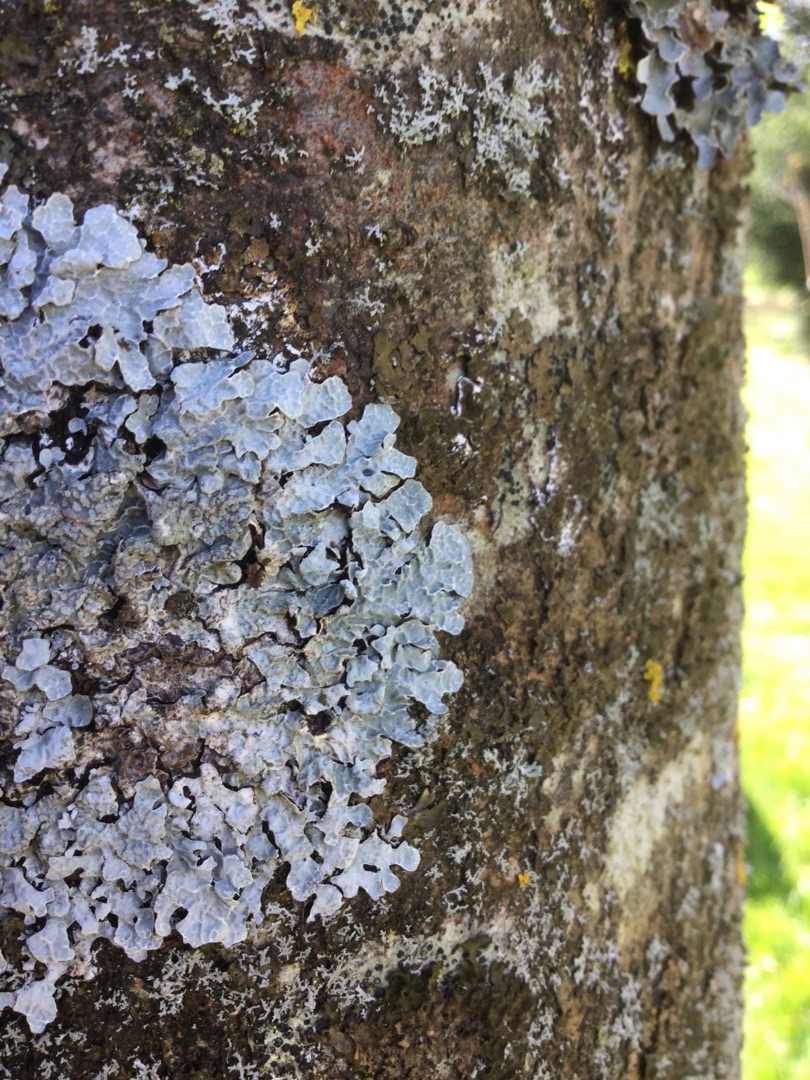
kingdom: Fungi
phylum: Ascomycota
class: Lecanoromycetes
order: Lecanorales
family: Parmeliaceae
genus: Parmelia
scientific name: Parmelia sulcata
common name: Rynket skållav
